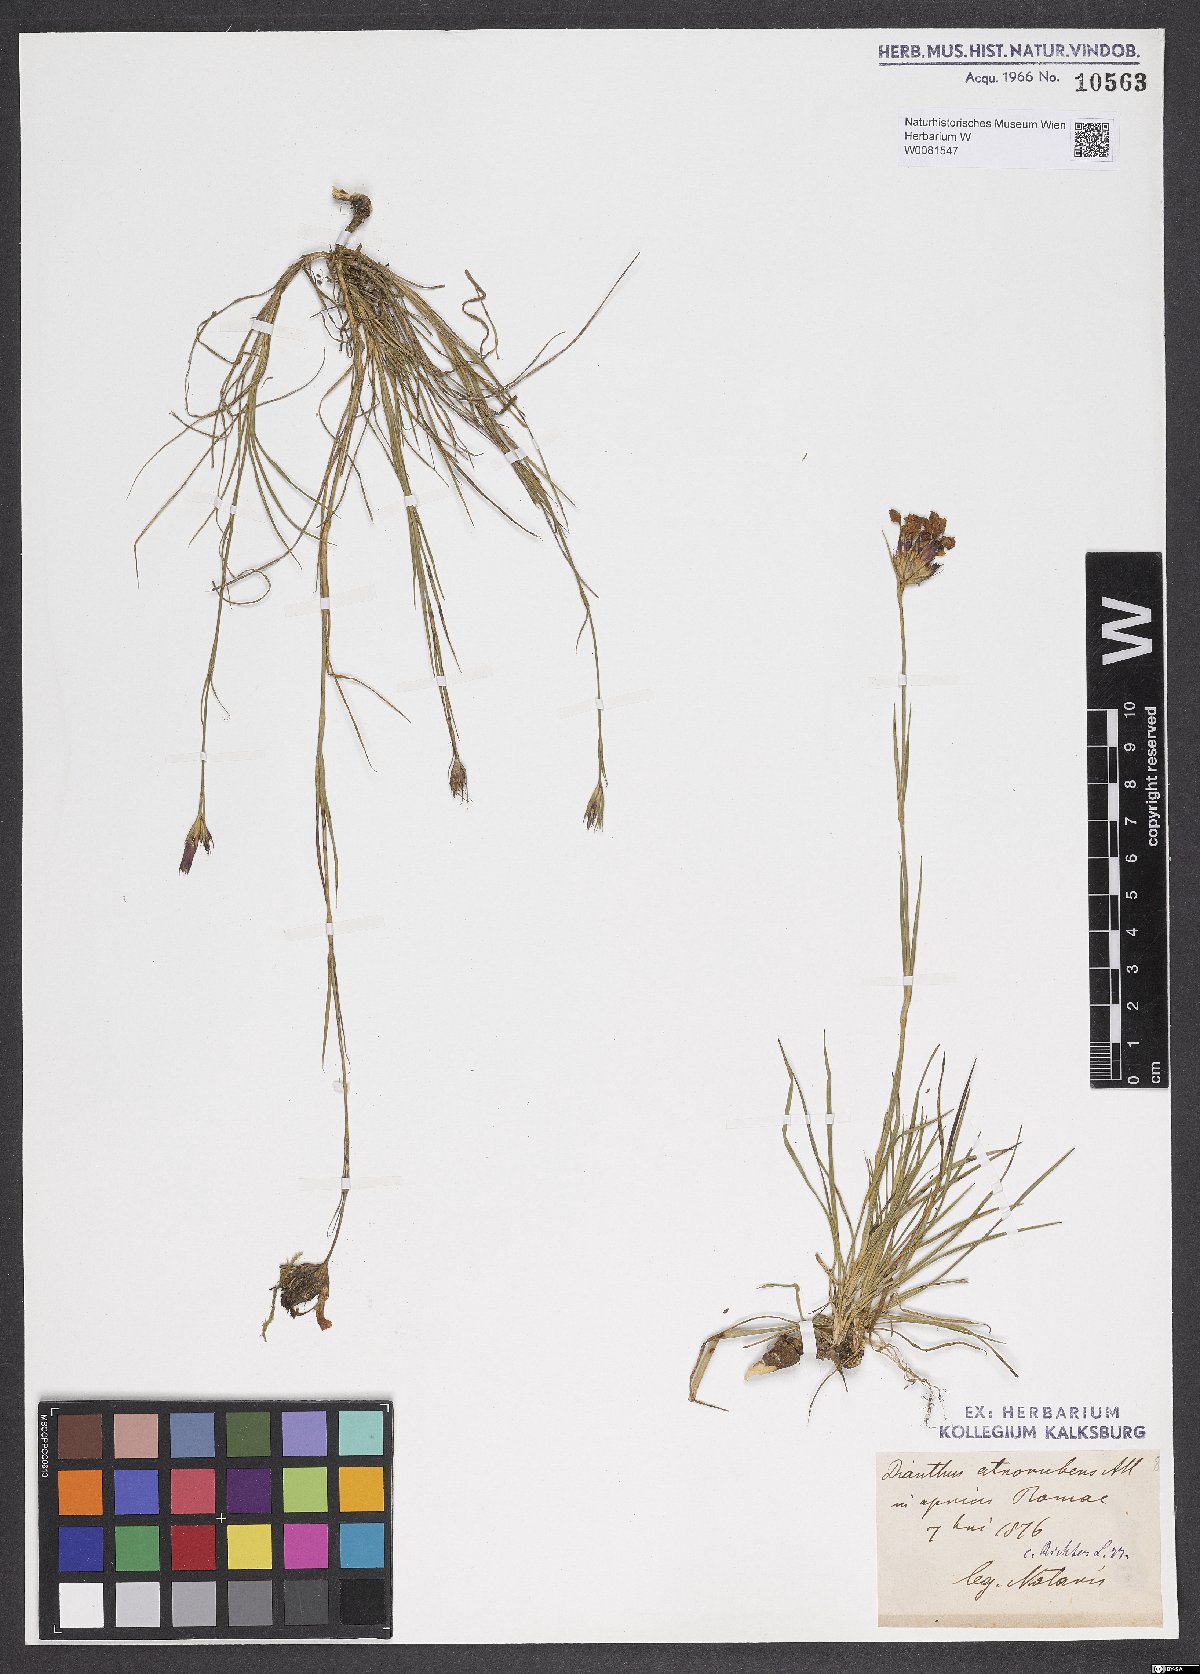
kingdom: Plantae
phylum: Tracheophyta
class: Magnoliopsida
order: Caryophyllales
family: Caryophyllaceae
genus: Dianthus
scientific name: Dianthus carthusianorum
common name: Carthusian pink
